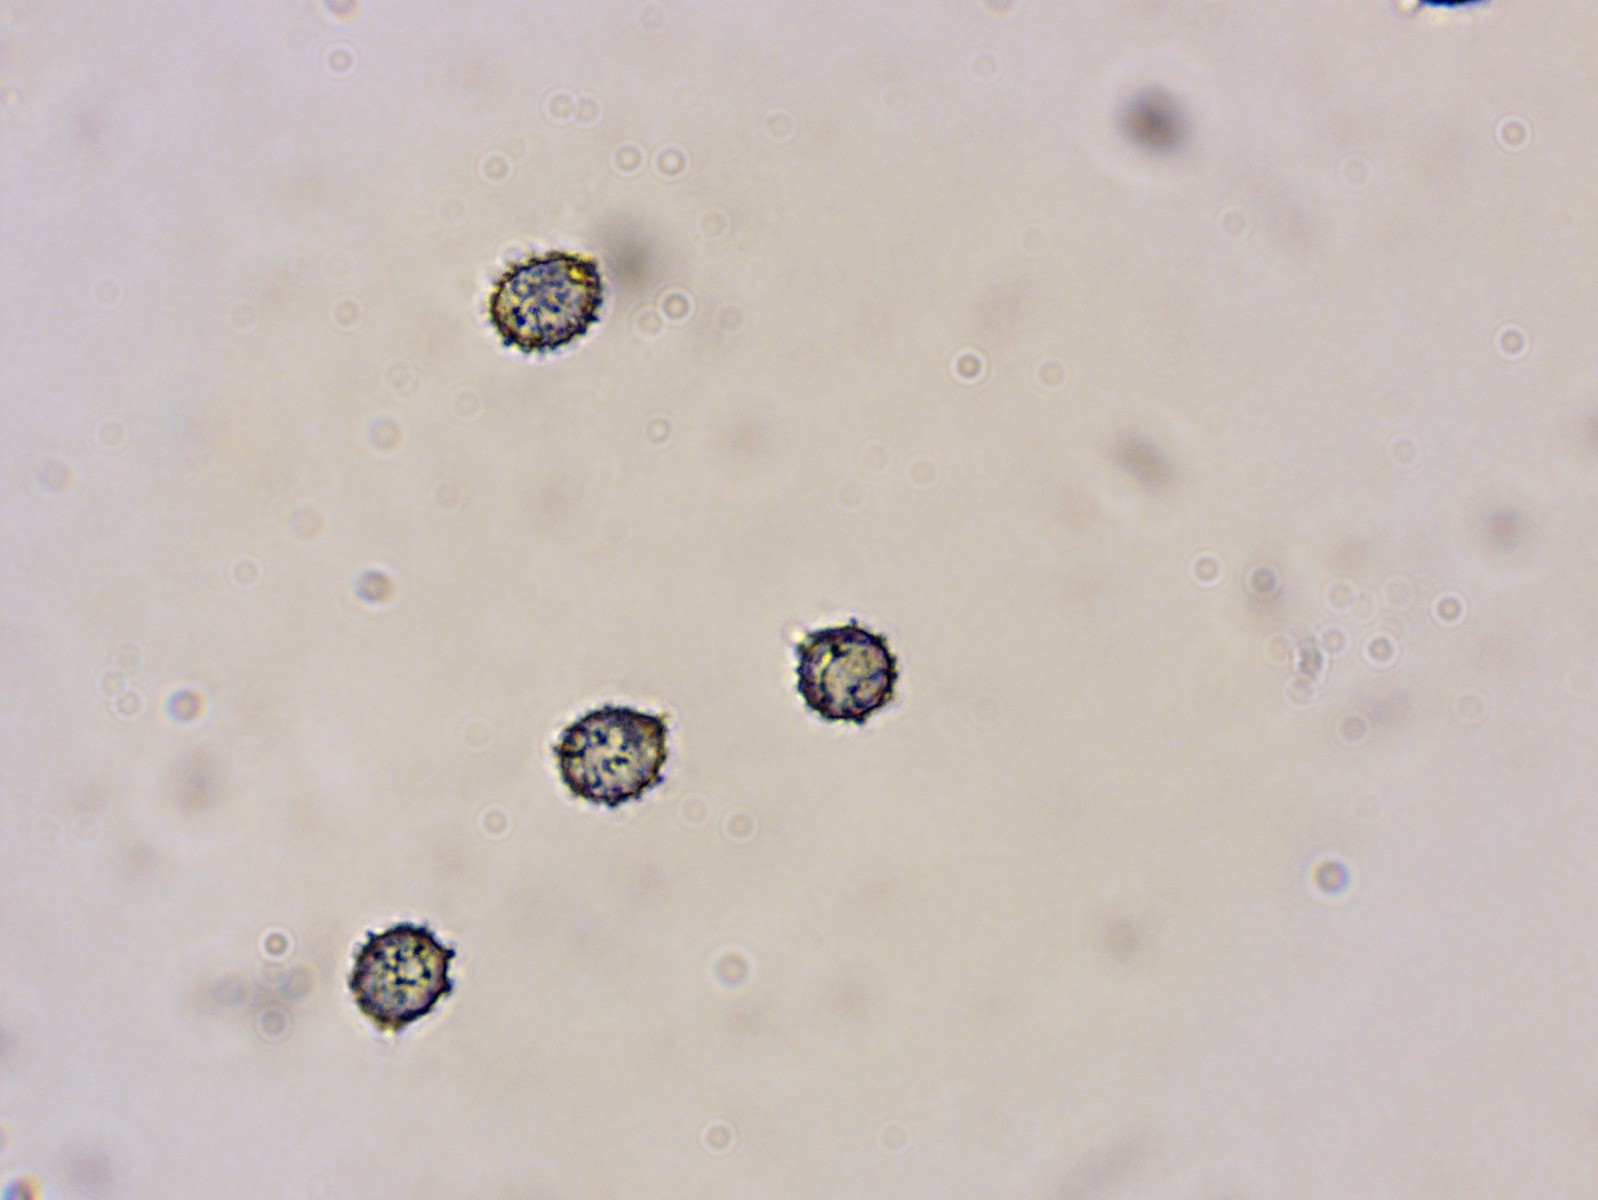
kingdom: Fungi
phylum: Basidiomycota
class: Agaricomycetes
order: Russulales
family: Russulaceae
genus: Russula
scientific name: Russula nobilis
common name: lille gift-skørhat
